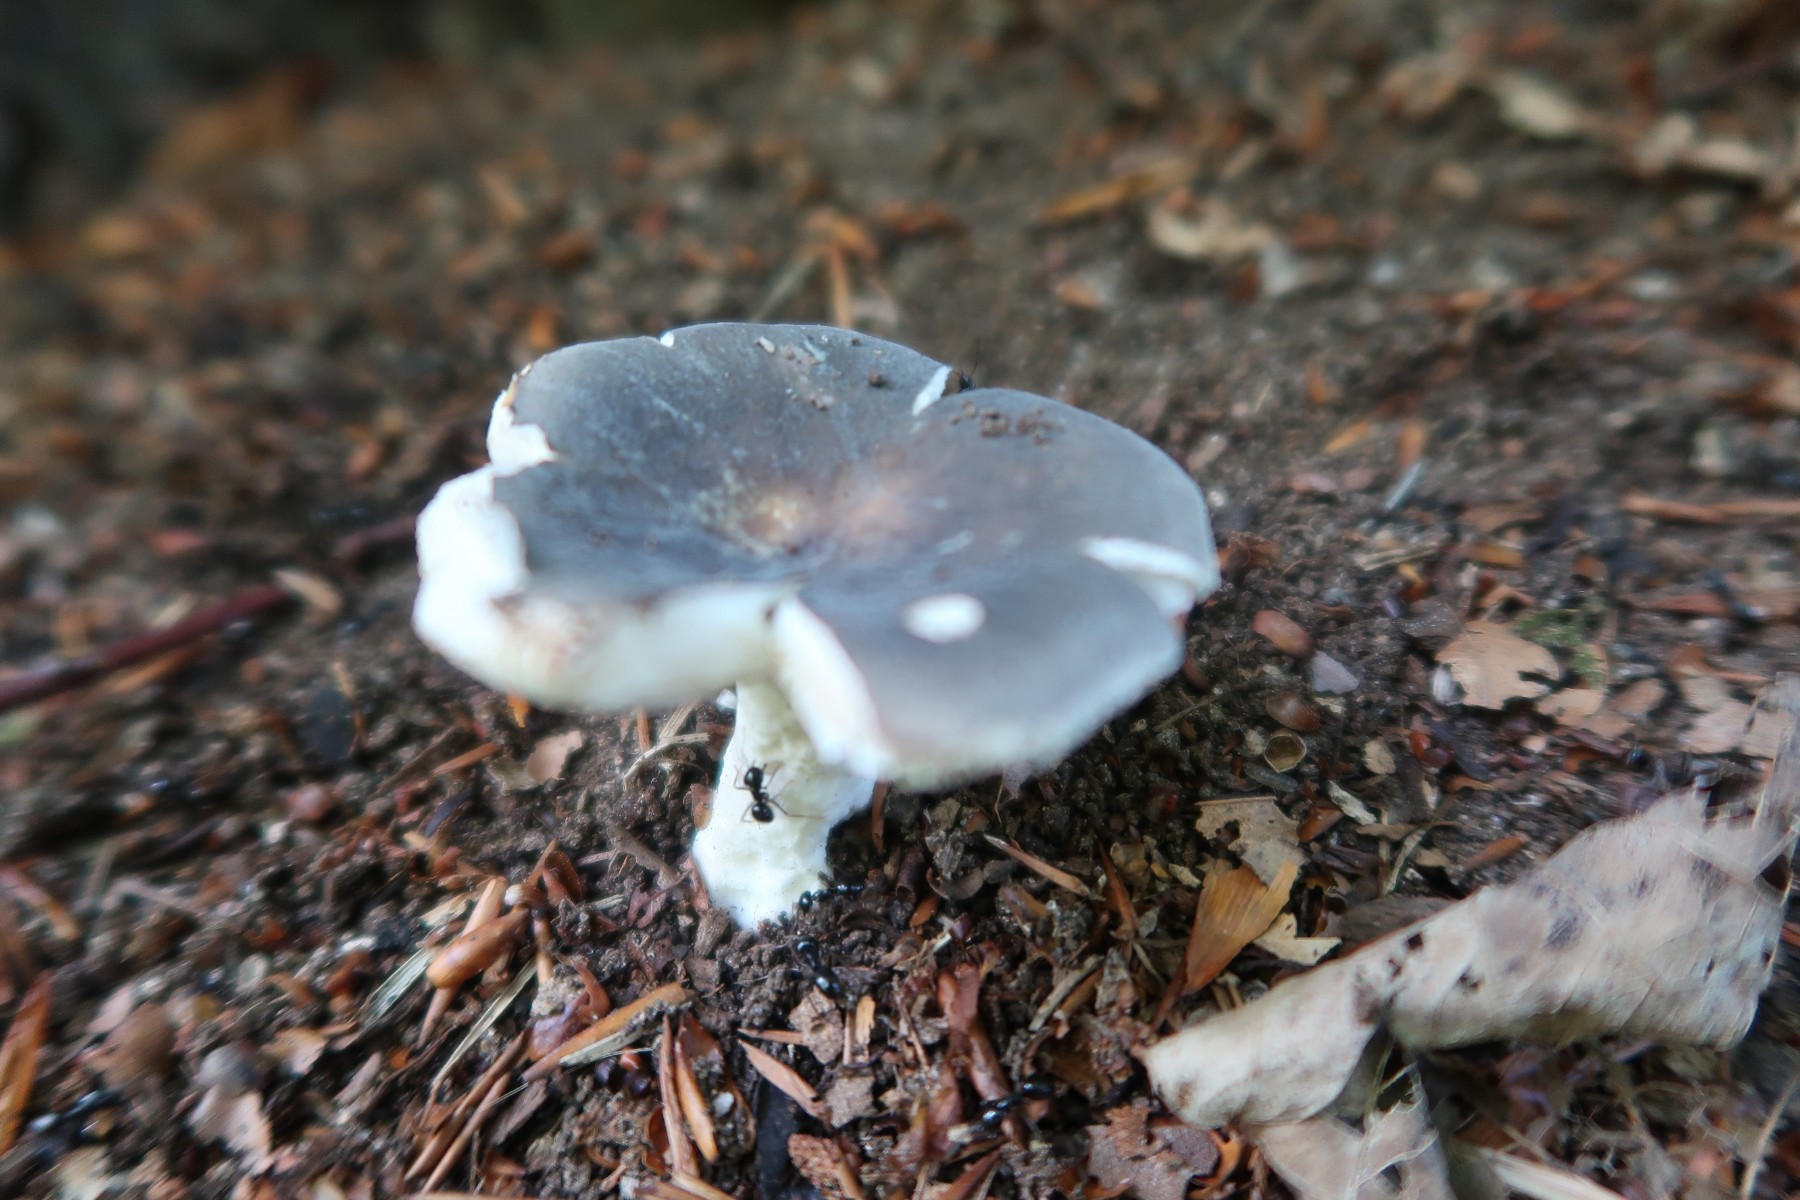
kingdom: Fungi
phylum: Basidiomycota
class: Agaricomycetes
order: Russulales
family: Russulaceae
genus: Russula
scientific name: Russula parazurea
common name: blågrå skørhat
